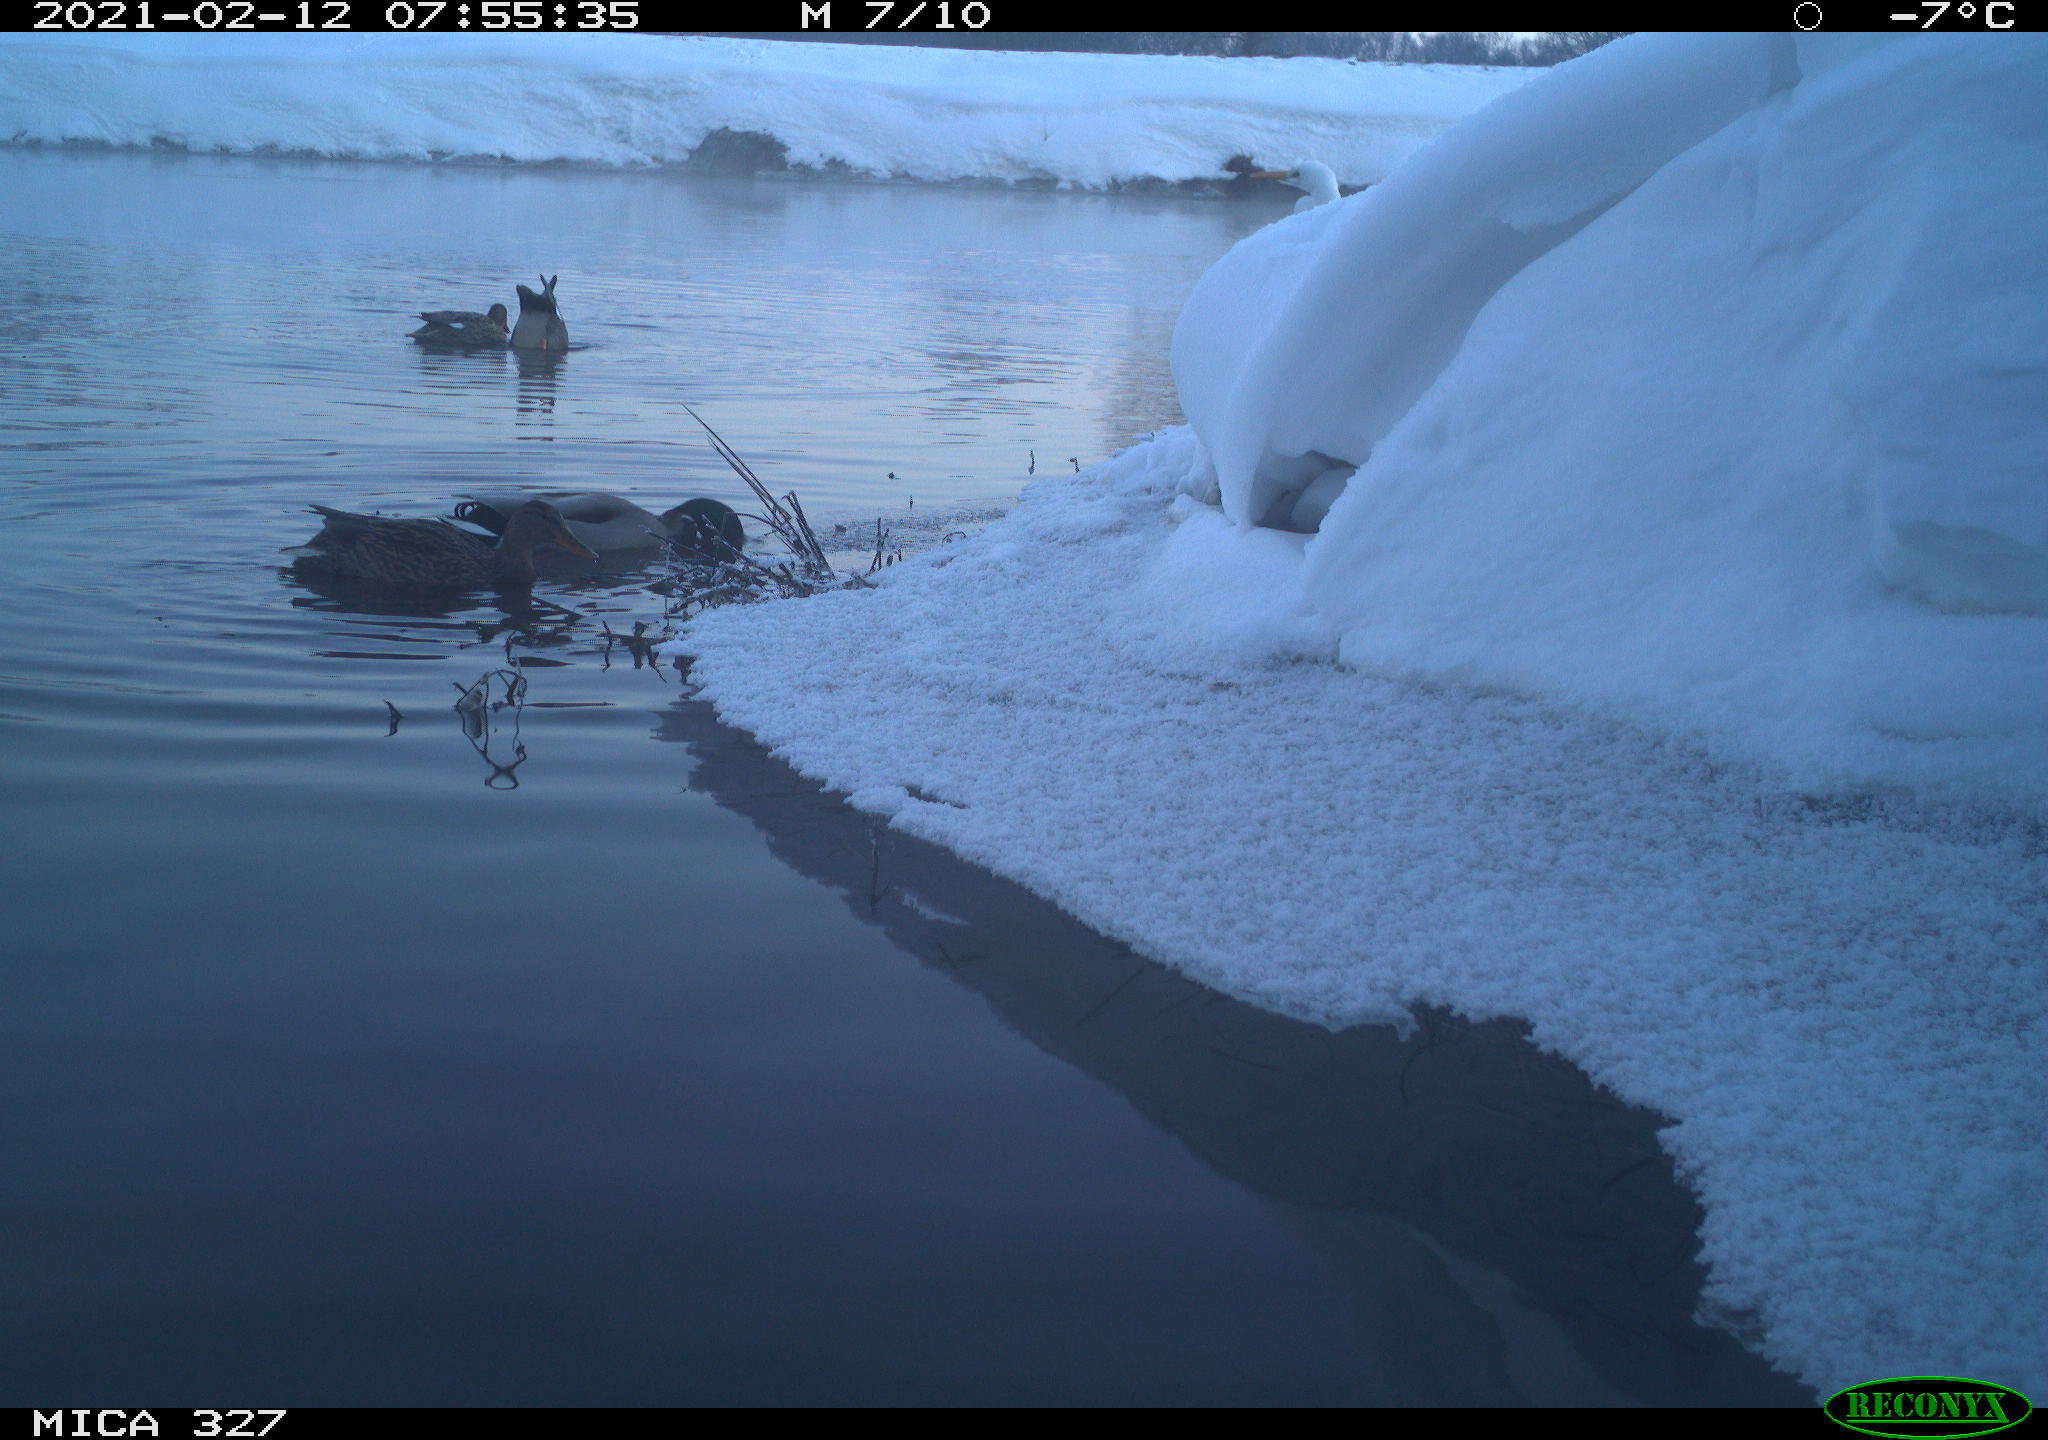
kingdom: Animalia
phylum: Chordata
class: Aves
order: Anseriformes
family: Anatidae
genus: Anas
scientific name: Anas platyrhynchos
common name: Mallard
